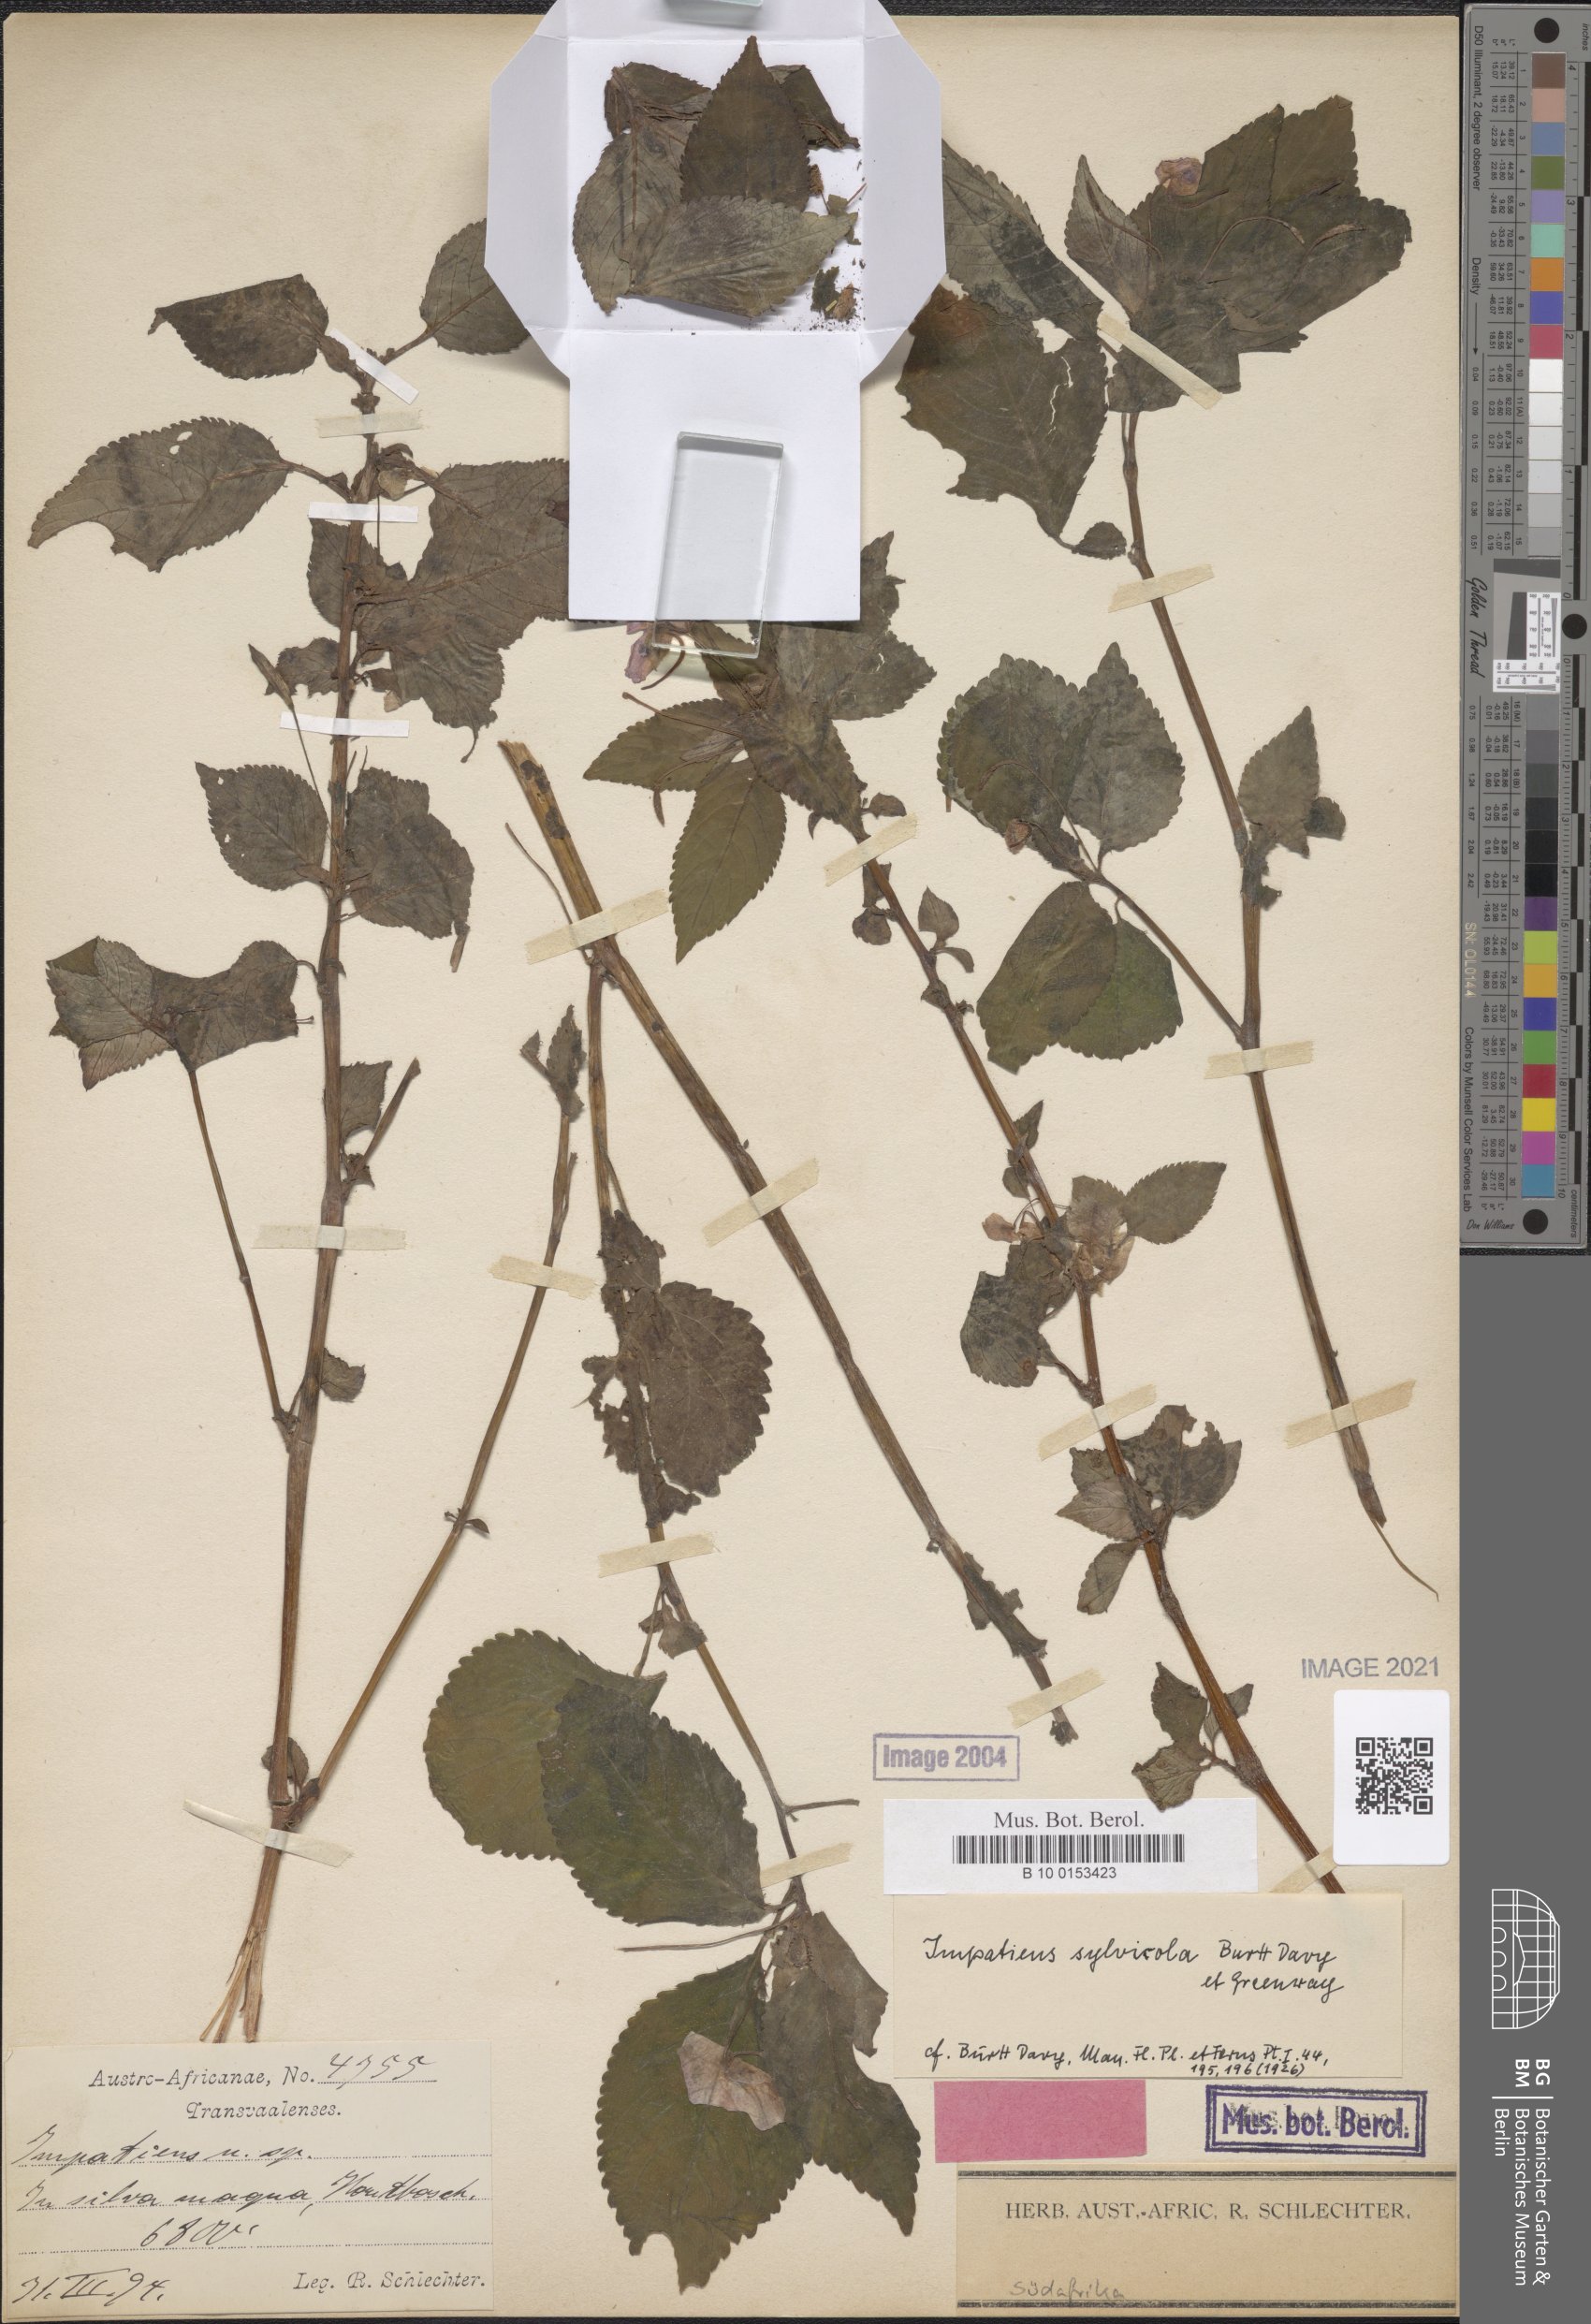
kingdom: Plantae
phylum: Tracheophyta
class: Magnoliopsida
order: Ericales
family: Balsaminaceae
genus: Impatiens
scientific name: Impatiens sylvicola
